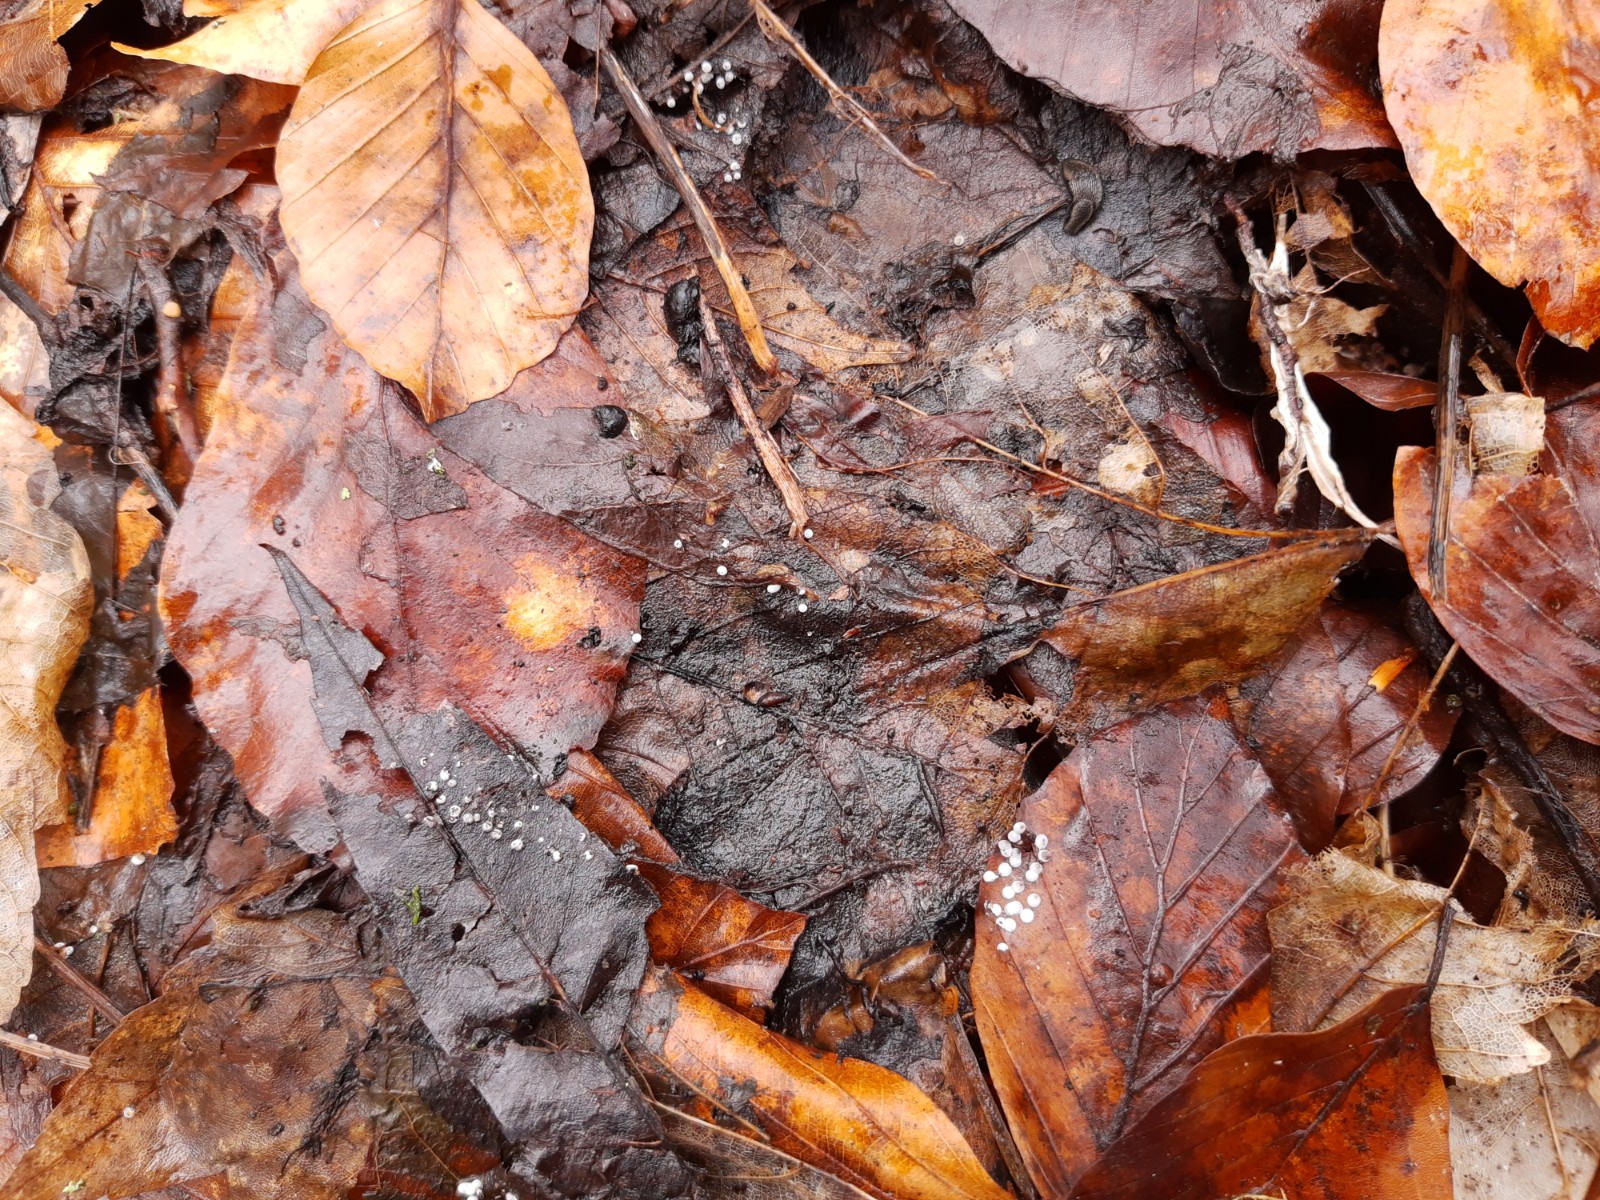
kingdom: Protozoa
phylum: Mycetozoa
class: Myxomycetes
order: Physarales
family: Didymiaceae
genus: Didymium
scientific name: Didymium squamulosum
